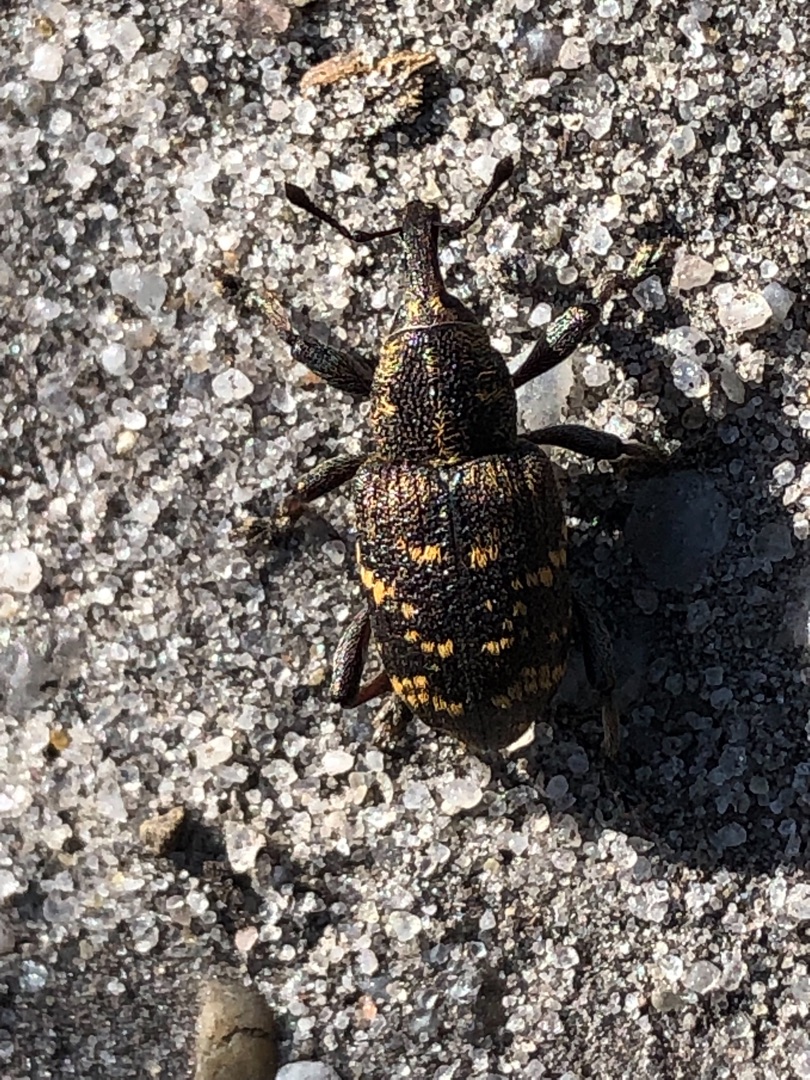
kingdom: Animalia
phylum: Arthropoda
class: Insecta
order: Coleoptera
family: Curculionidae
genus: Hylobius
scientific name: Hylobius abietis
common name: Stor nåletræsnudebille
